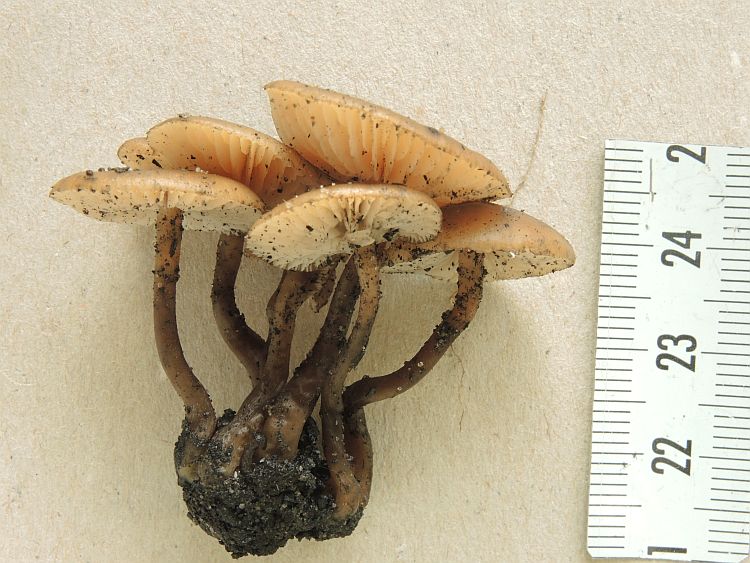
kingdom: Fungi
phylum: Basidiomycota
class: Agaricomycetes
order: Agaricales
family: Lyophyllaceae
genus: Tephrocybe
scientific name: Tephrocybe atrata
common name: brandplet-gråblad
